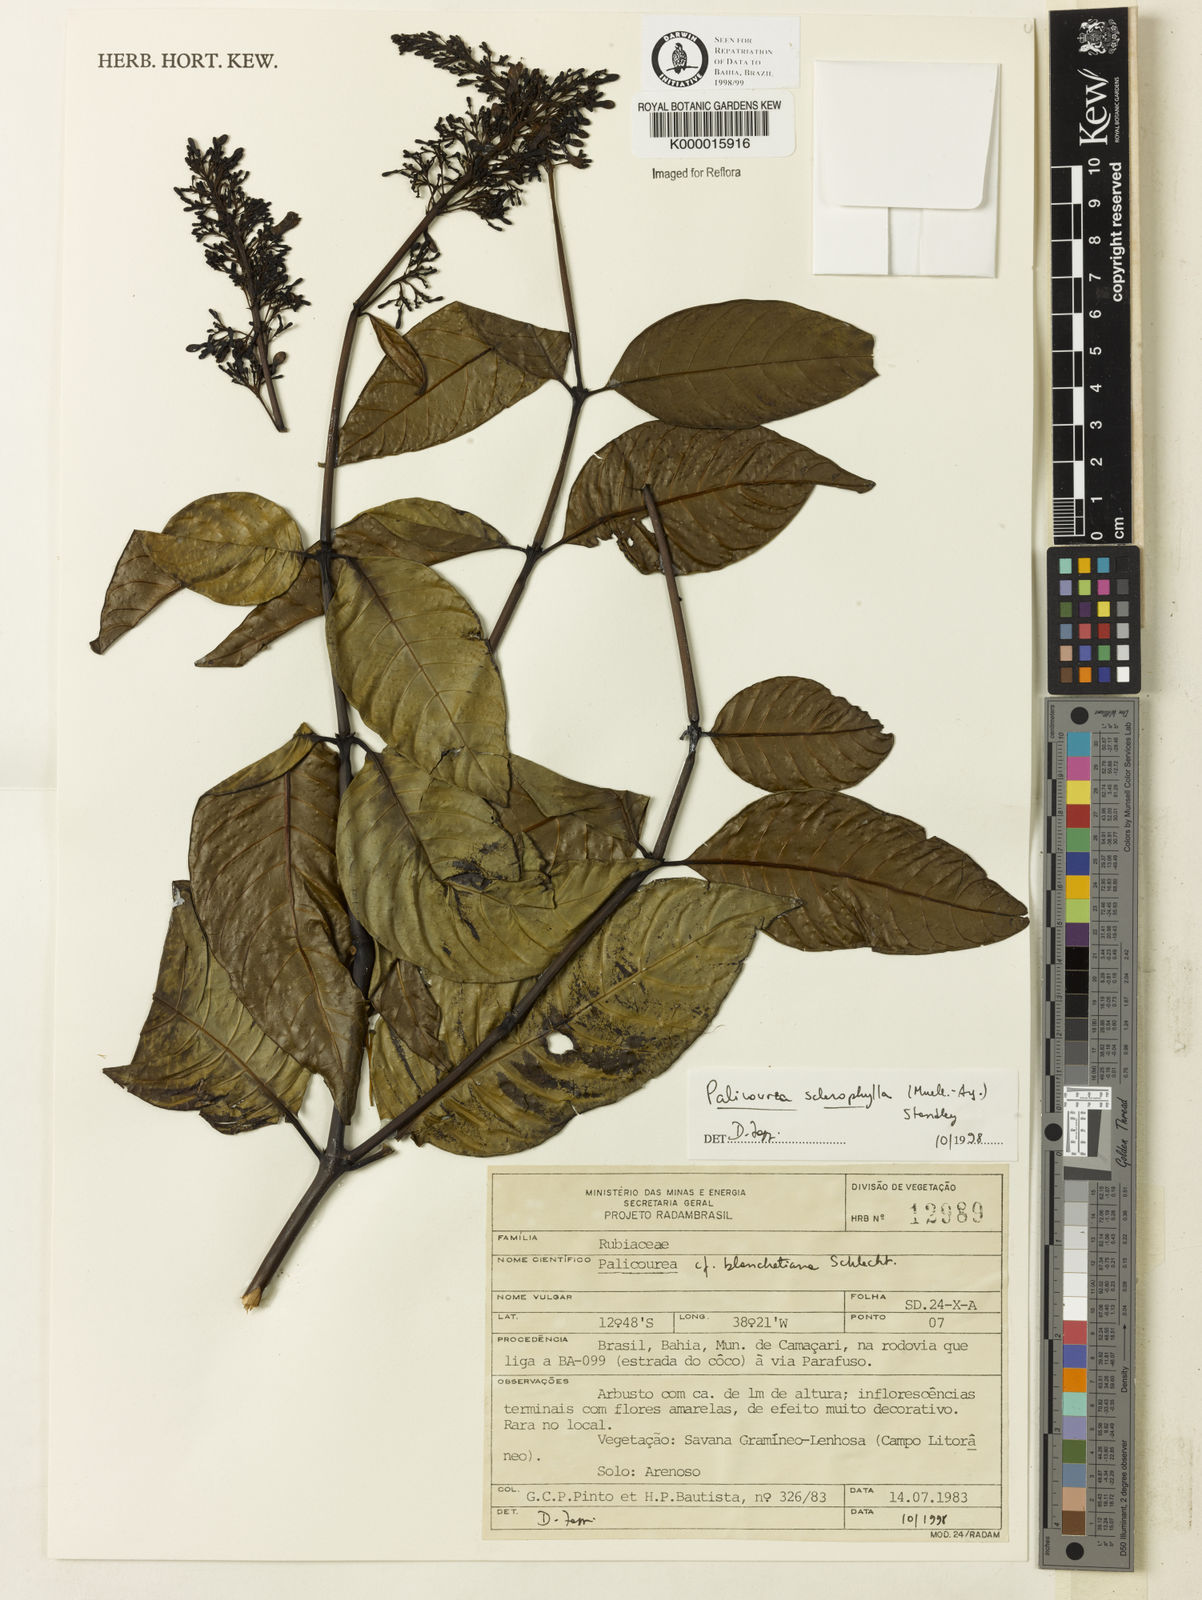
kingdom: Plantae
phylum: Tracheophyta
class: Magnoliopsida
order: Gentianales
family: Rubiaceae
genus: Palicourea
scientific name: Palicourea sclerophylla
